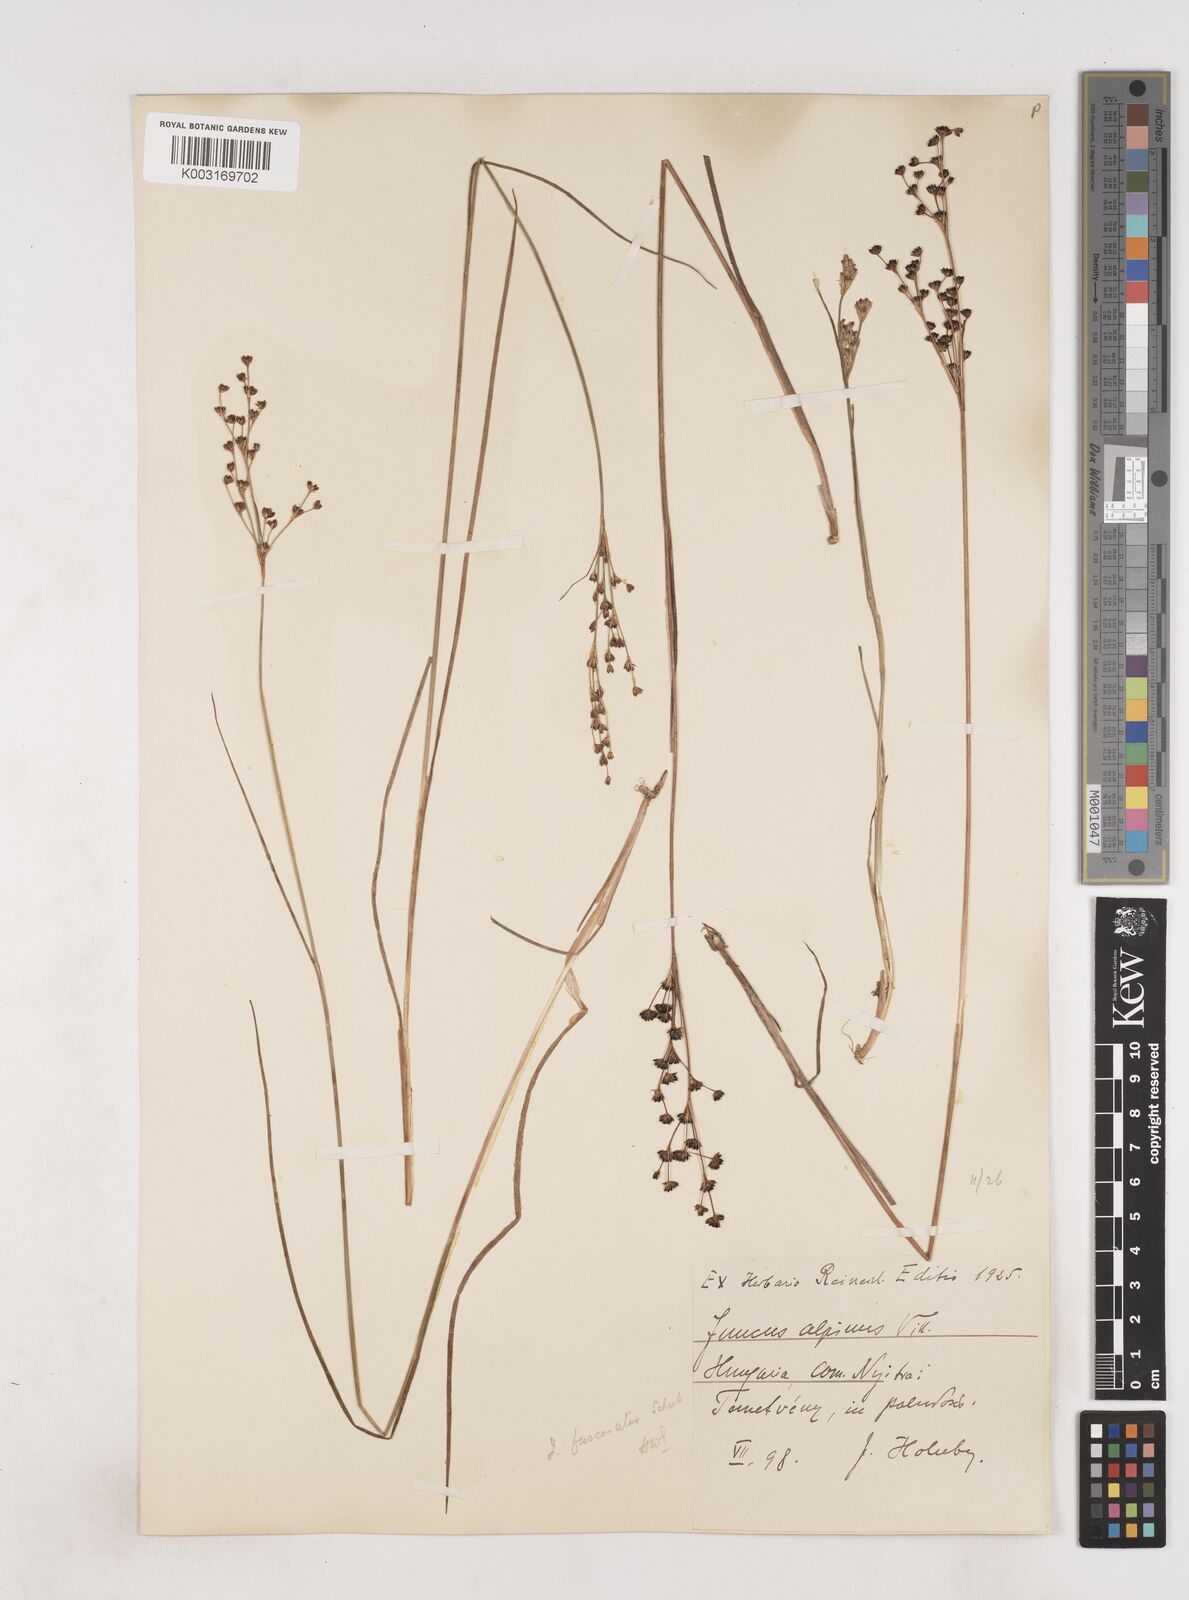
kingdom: Plantae
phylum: Tracheophyta
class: Liliopsida
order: Poales
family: Juncaceae
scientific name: Juncaceae
